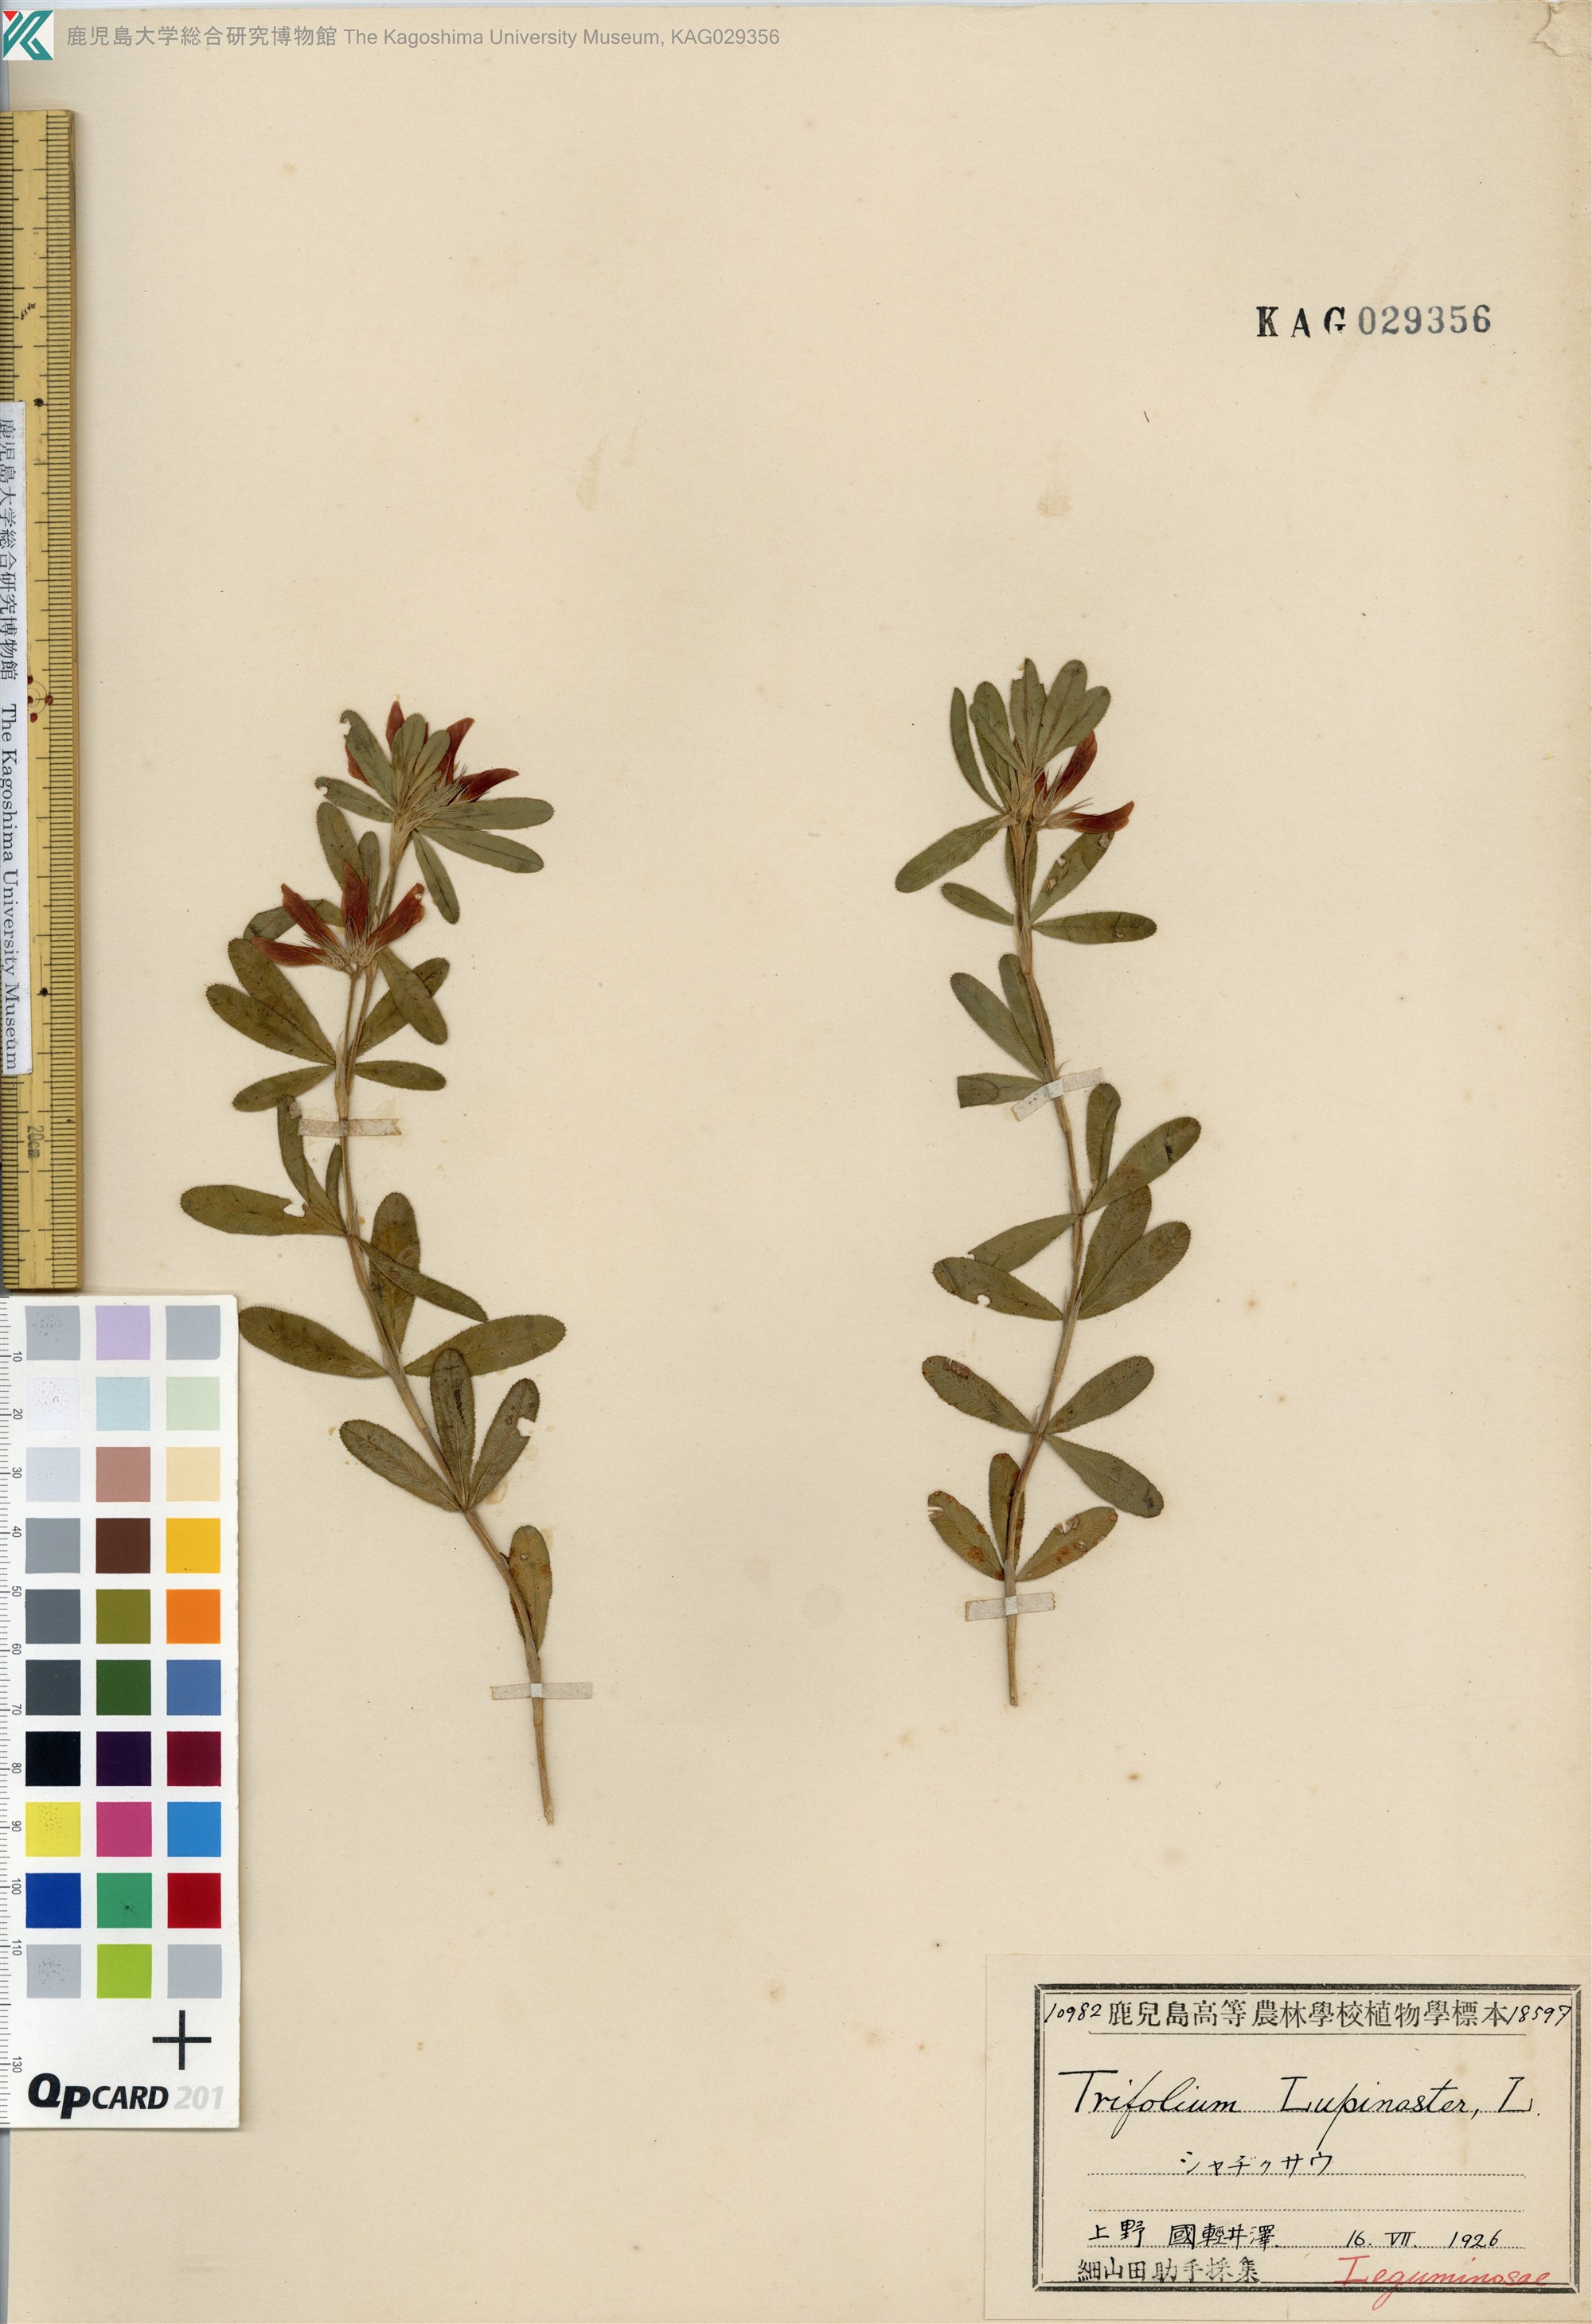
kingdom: Plantae
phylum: Tracheophyta
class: Magnoliopsida
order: Fabales
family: Fabaceae
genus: Trifolium
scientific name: Trifolium lupinaster
